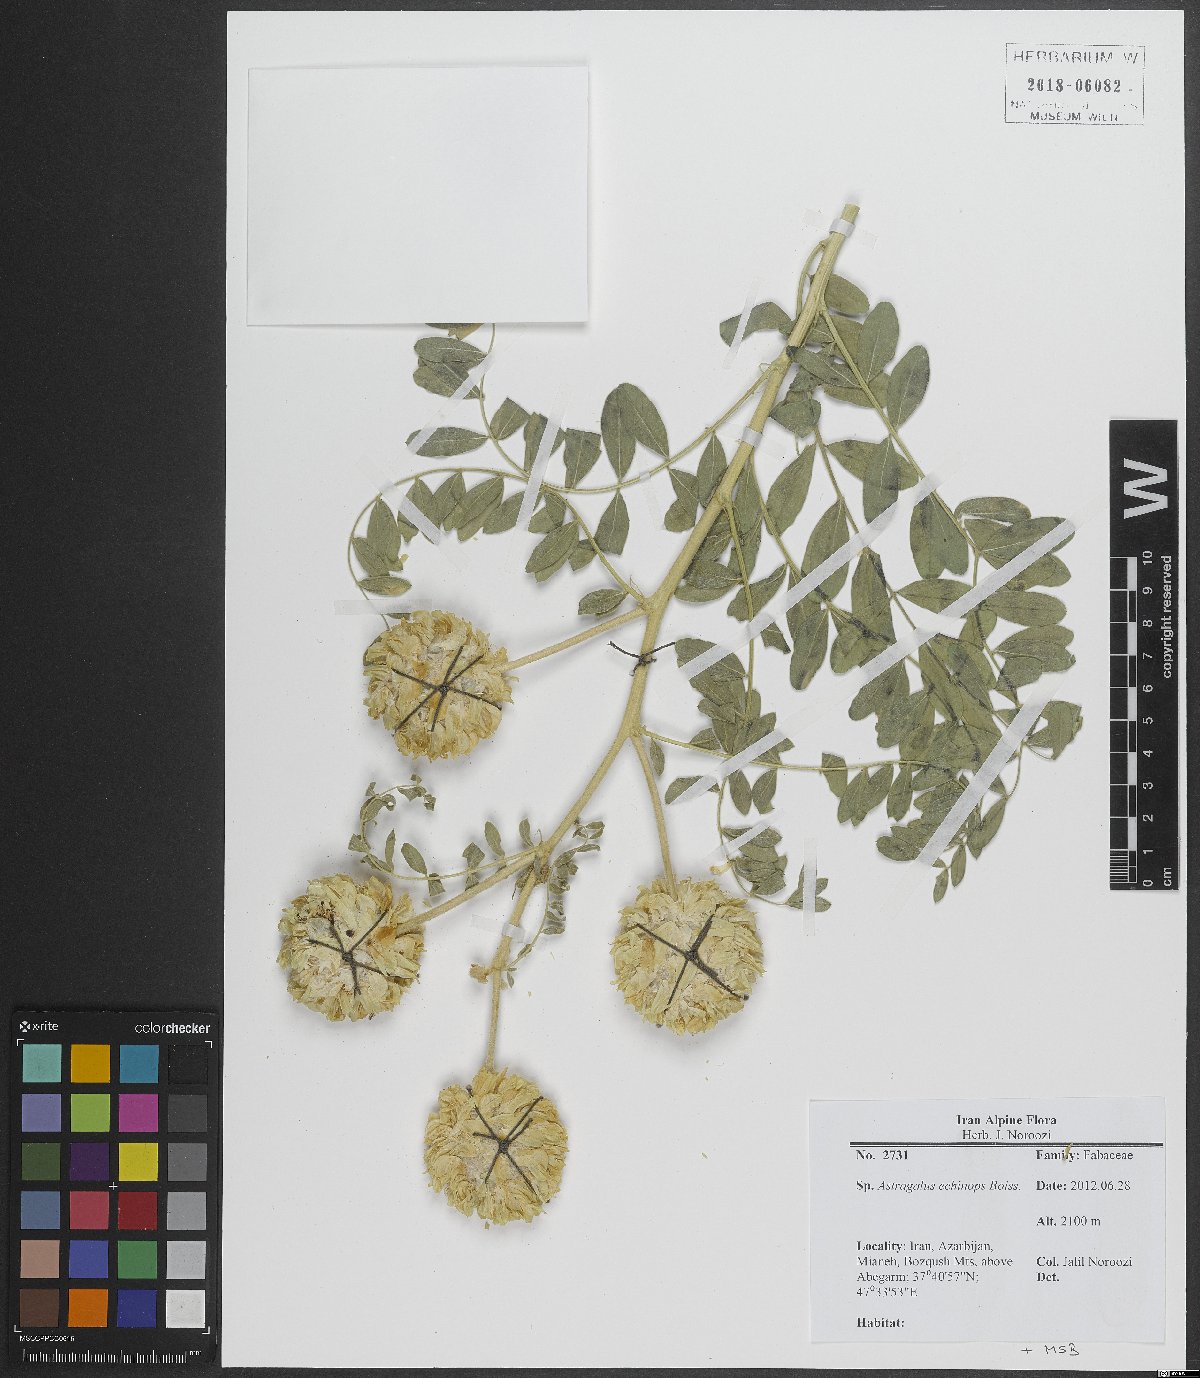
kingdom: Plantae
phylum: Tracheophyta
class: Magnoliopsida
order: Fabales
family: Fabaceae
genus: Astragalus
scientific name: Astragalus echinops
